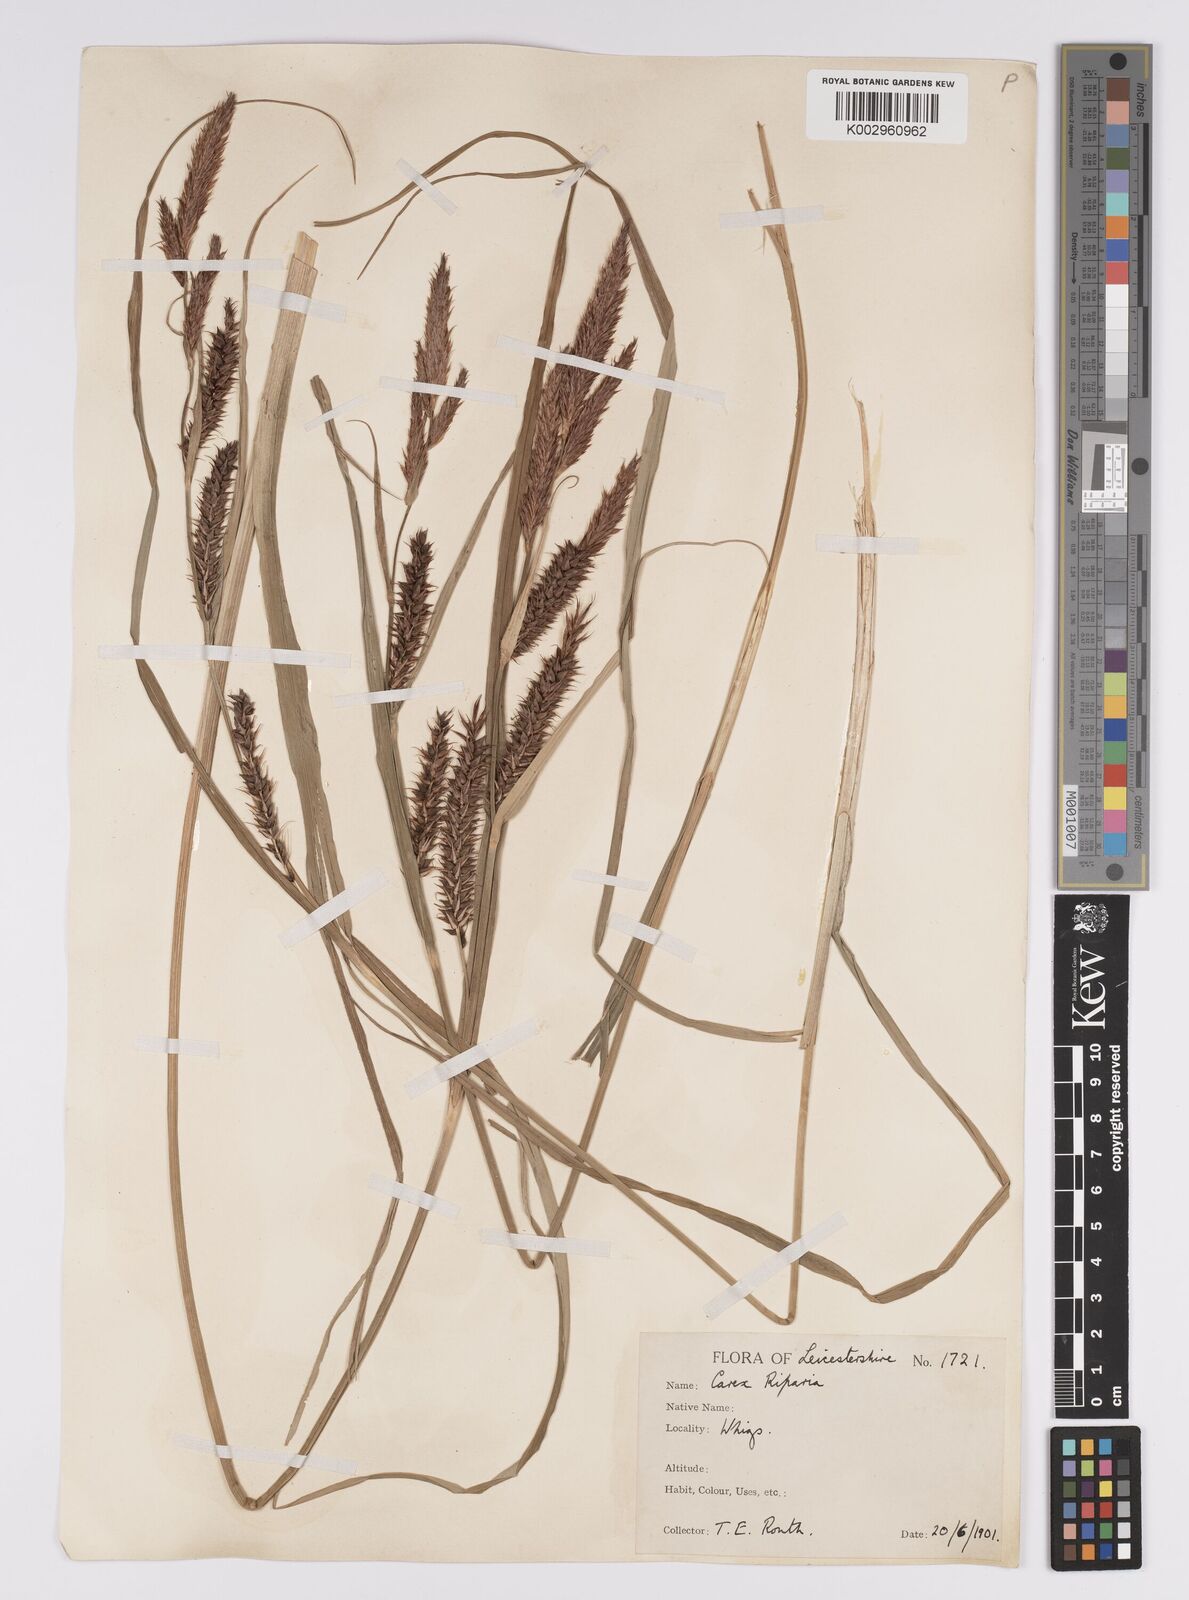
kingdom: Plantae
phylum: Tracheophyta
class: Liliopsida
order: Poales
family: Cyperaceae
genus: Carex
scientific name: Carex riparia
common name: Greater pond-sedge
